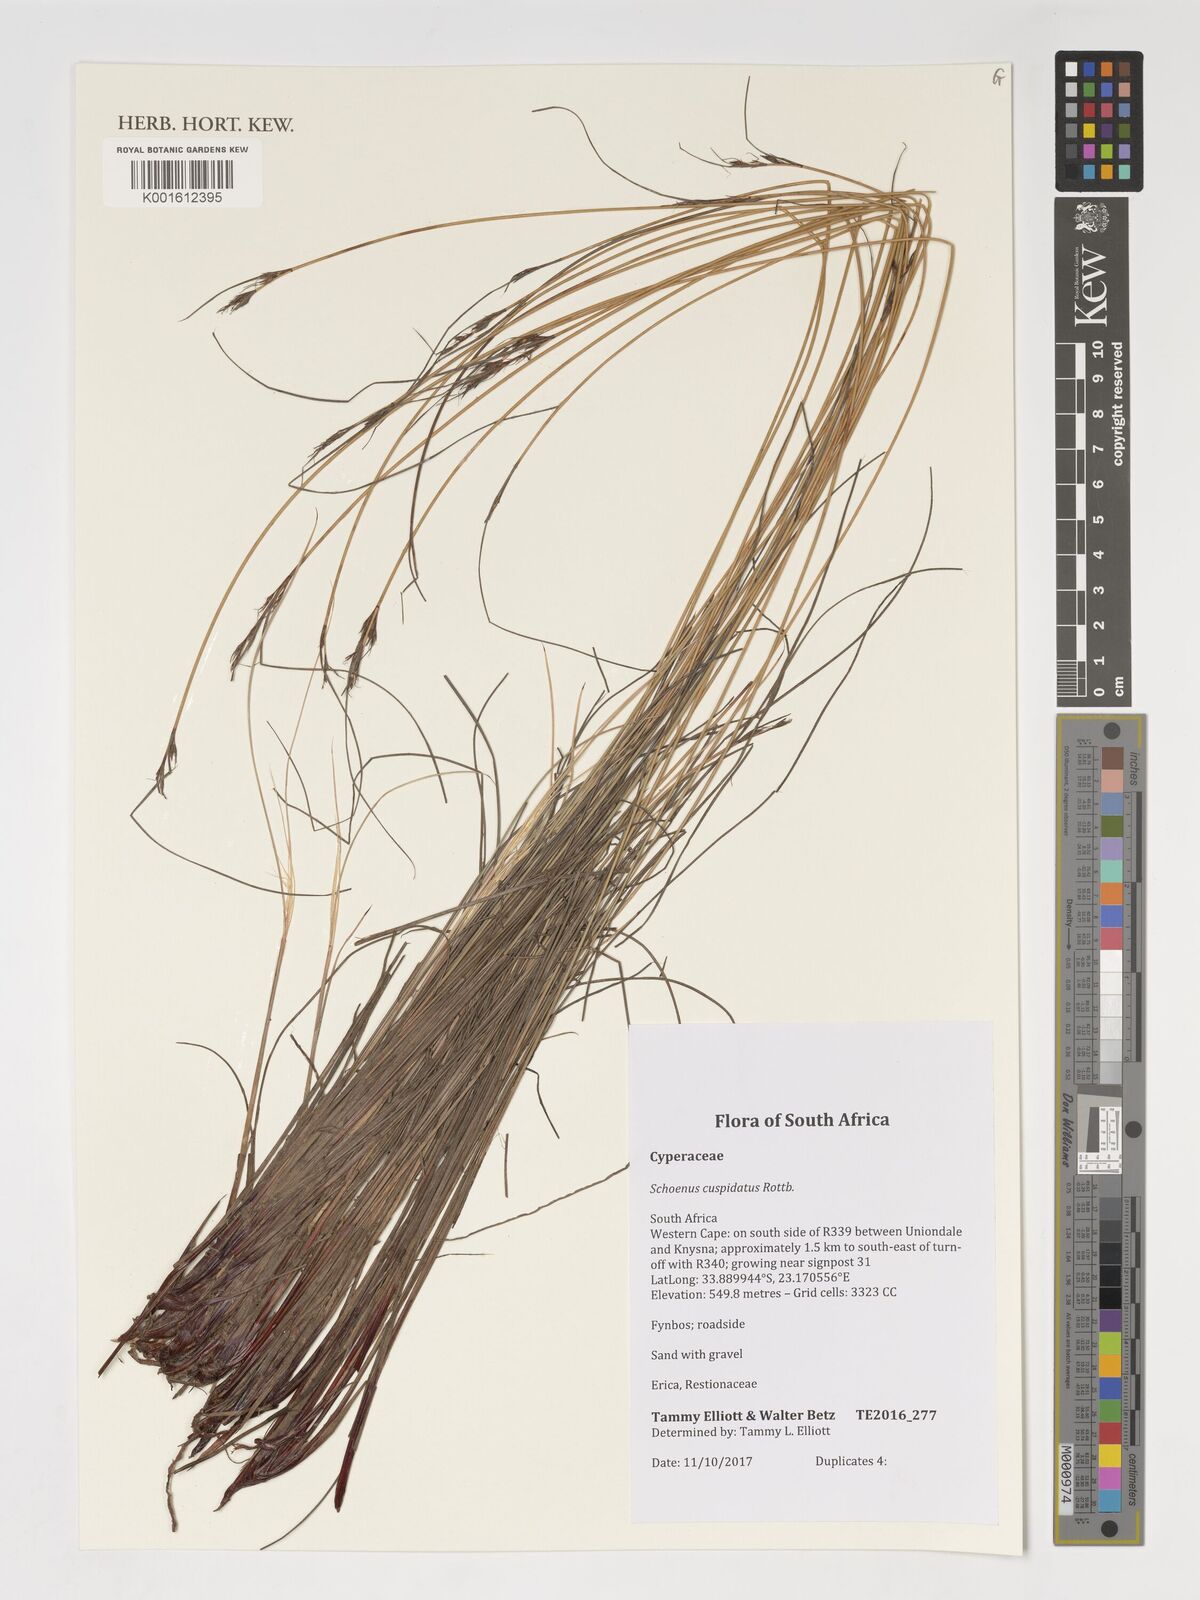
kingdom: Plantae
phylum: Tracheophyta
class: Liliopsida
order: Poales
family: Cyperaceae
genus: Schoenus
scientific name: Schoenus cuspidatus
